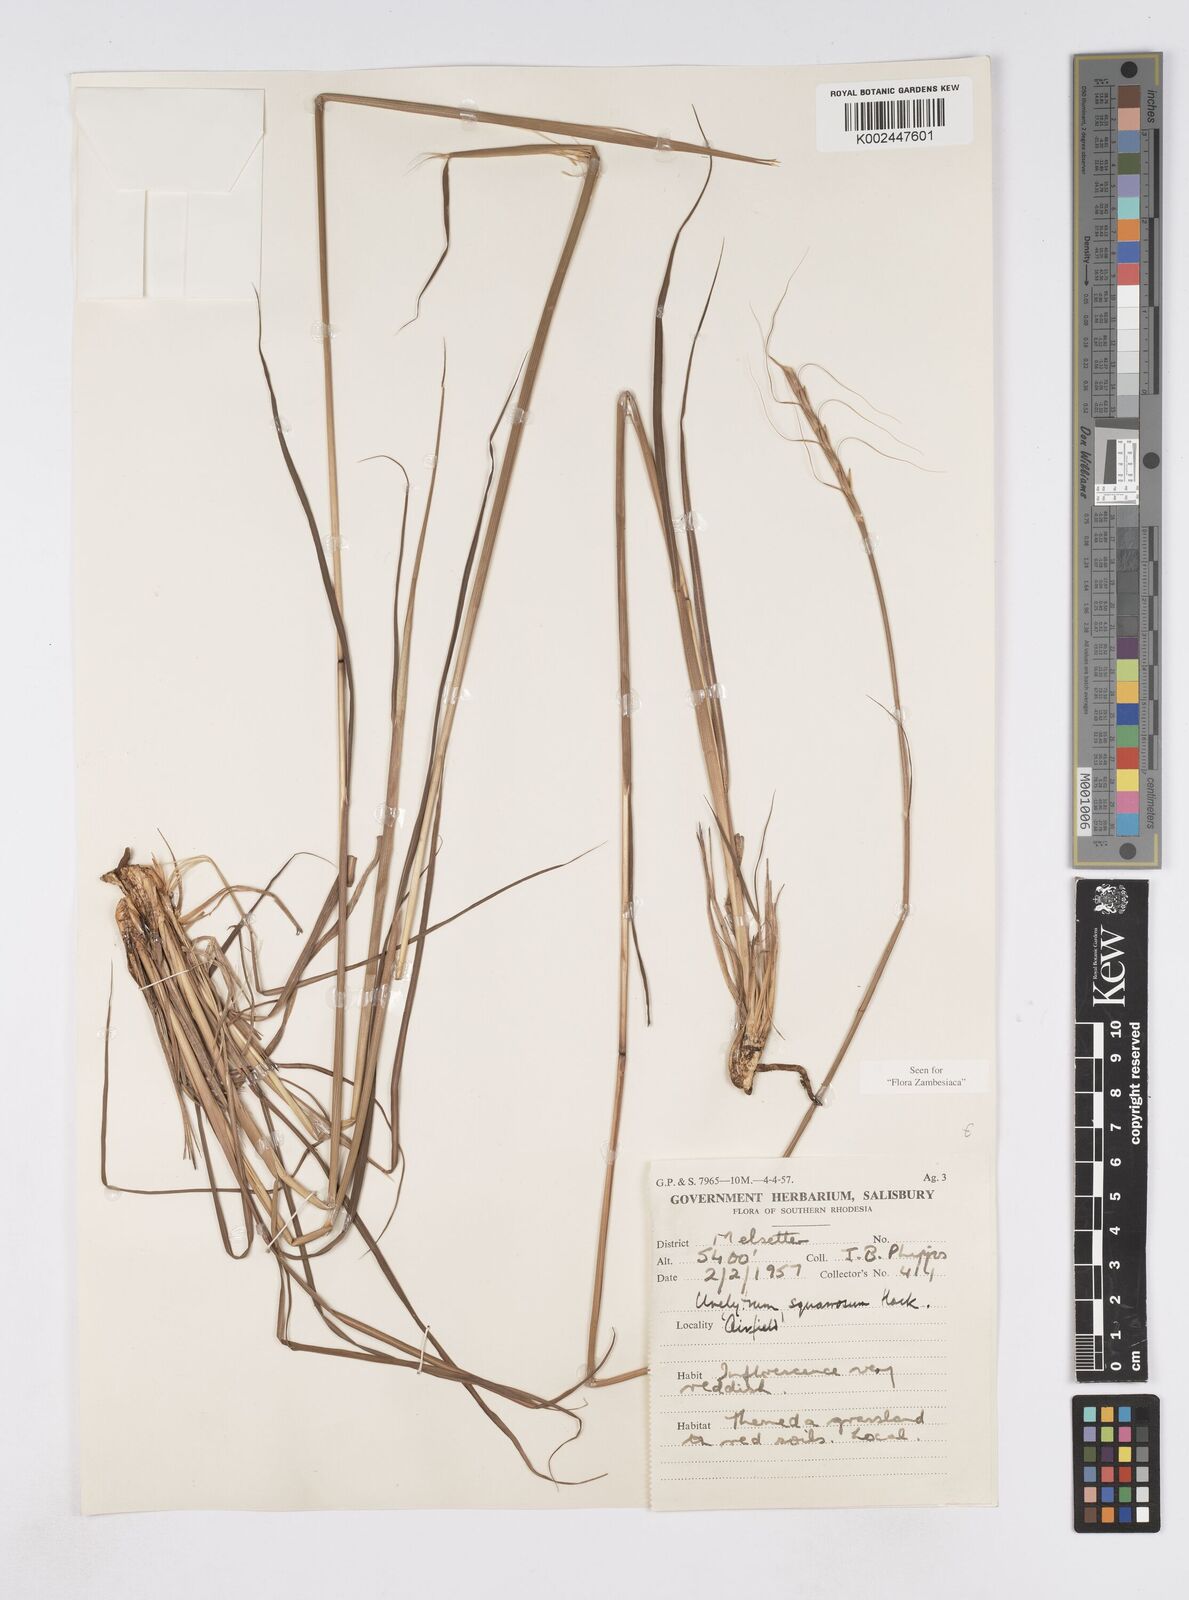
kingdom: Plantae
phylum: Tracheophyta
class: Liliopsida
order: Poales
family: Poaceae
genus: Urelytrum
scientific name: Urelytrum agropyroides
